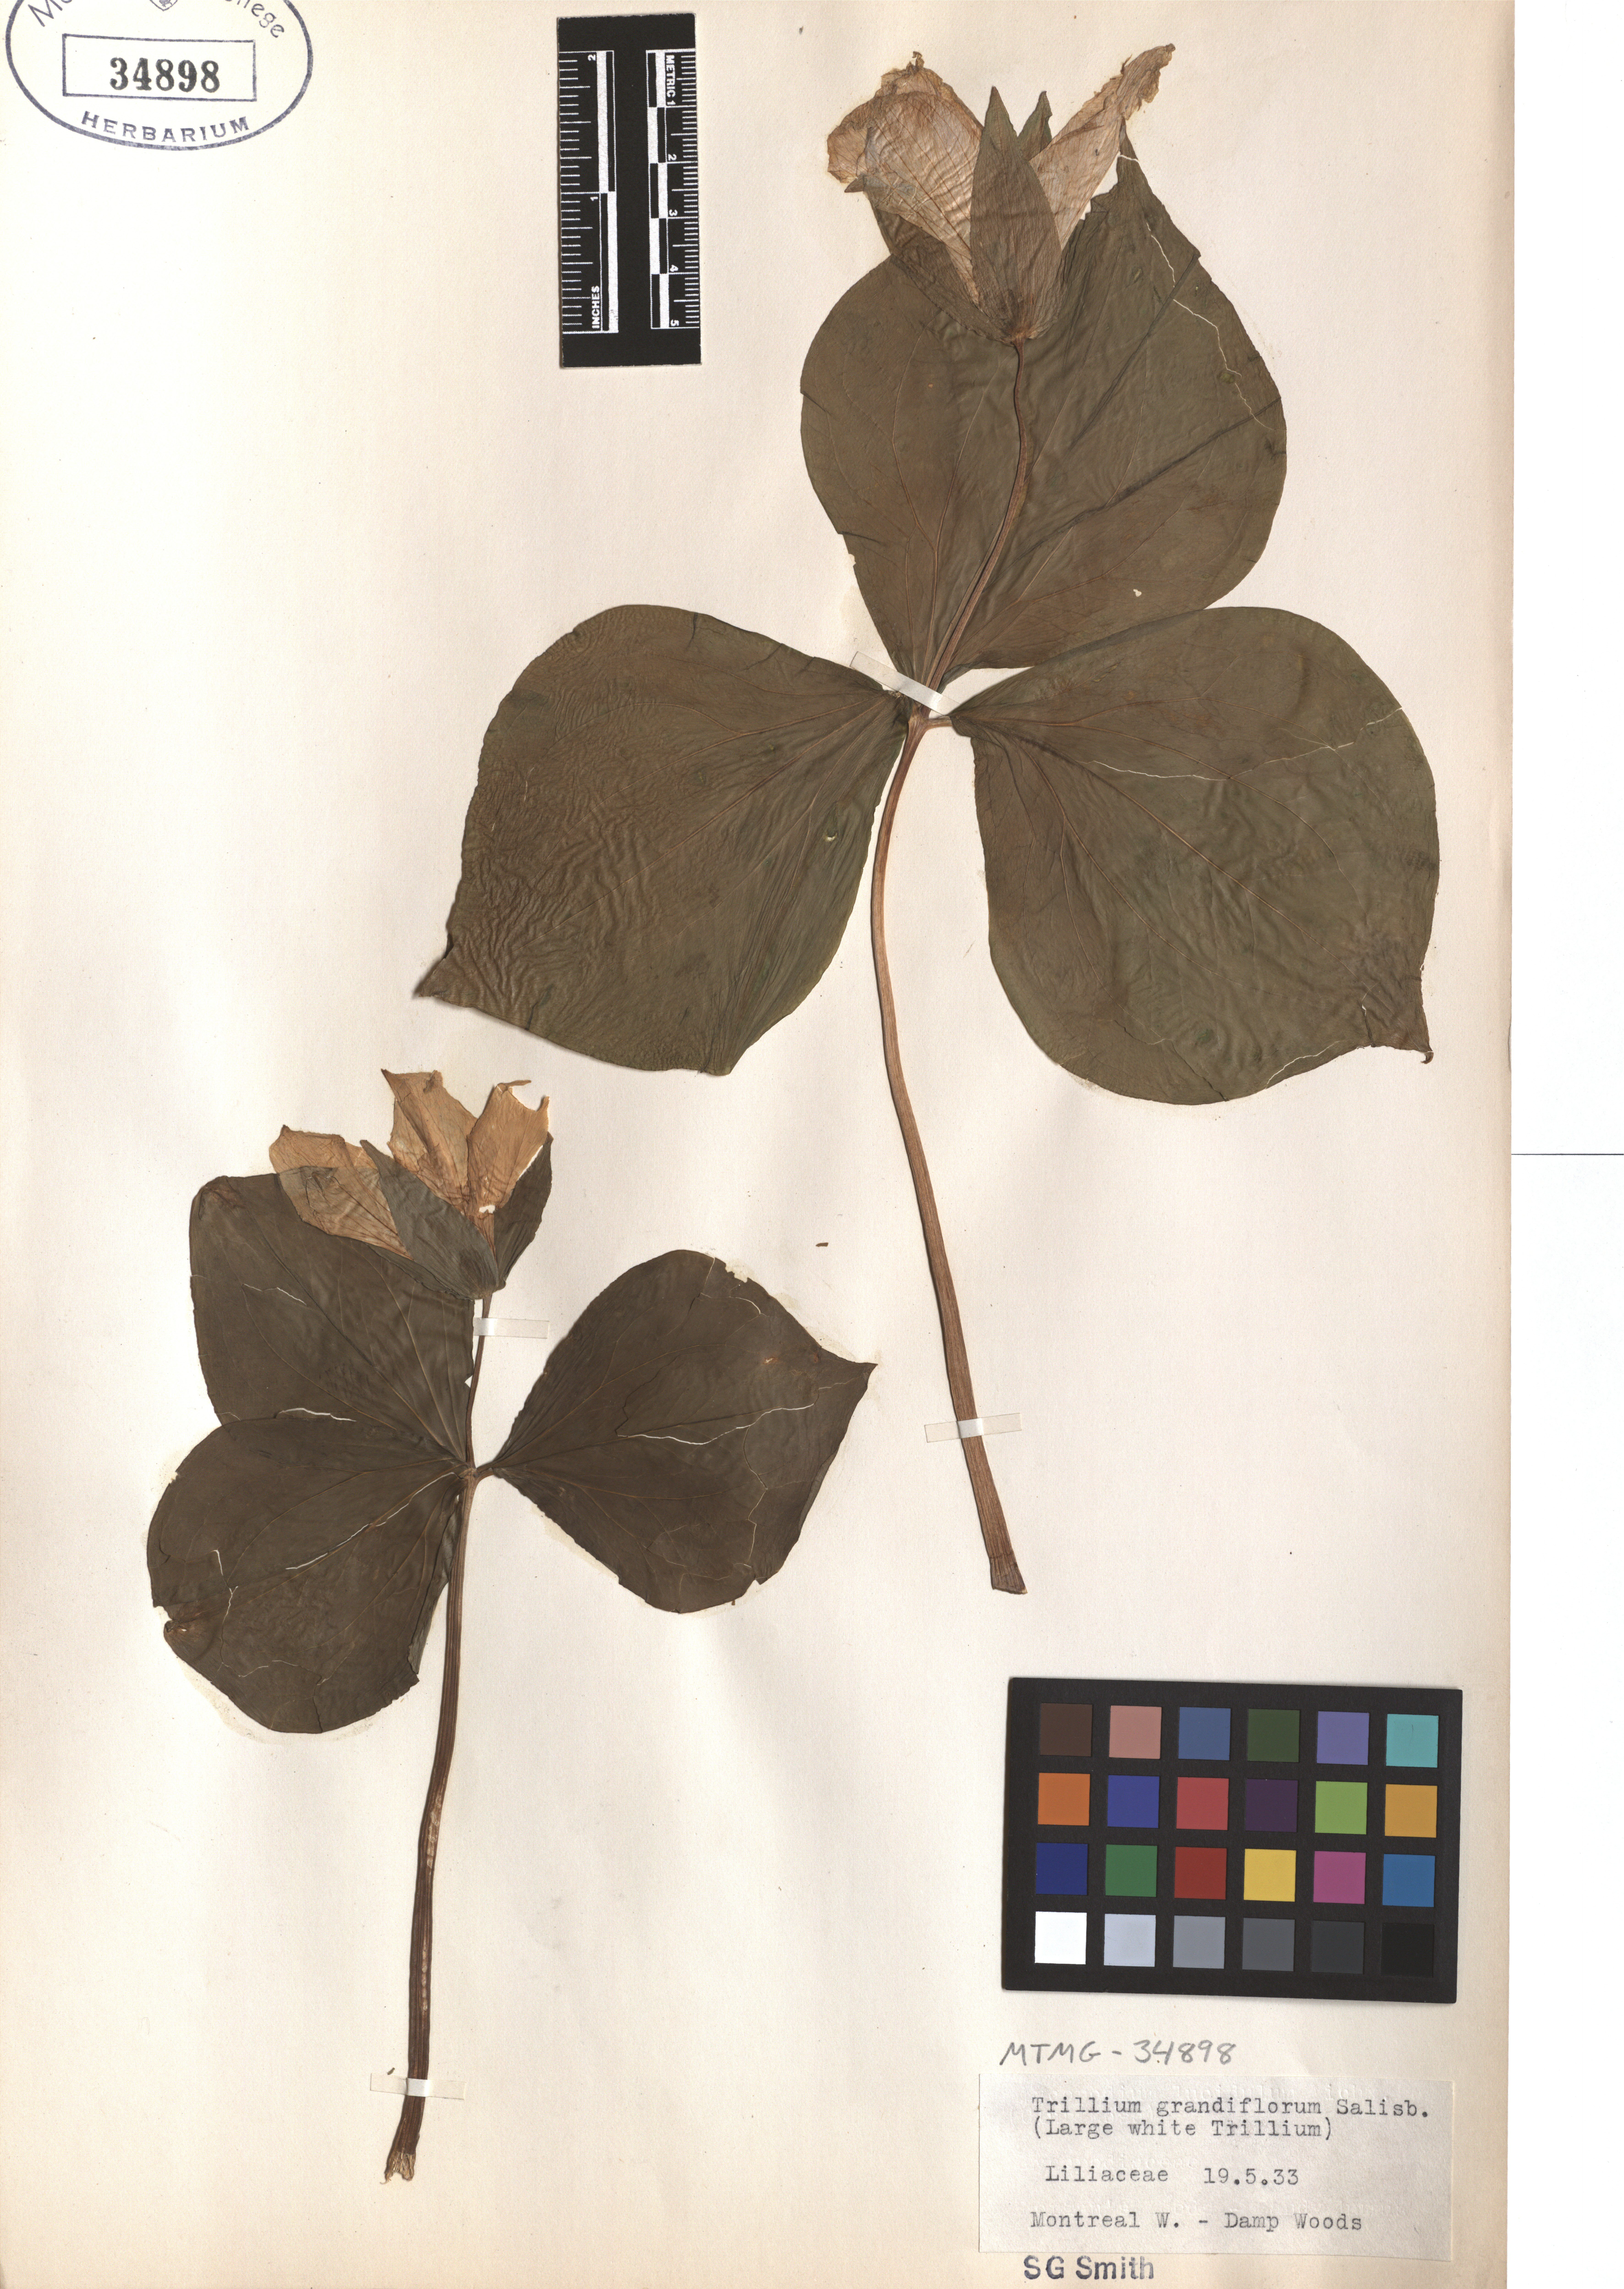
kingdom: Plantae
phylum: Tracheophyta
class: Liliopsida
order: Liliales
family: Melanthiaceae
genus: Trillium
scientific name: Trillium grandiflorum
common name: Great white trillium
